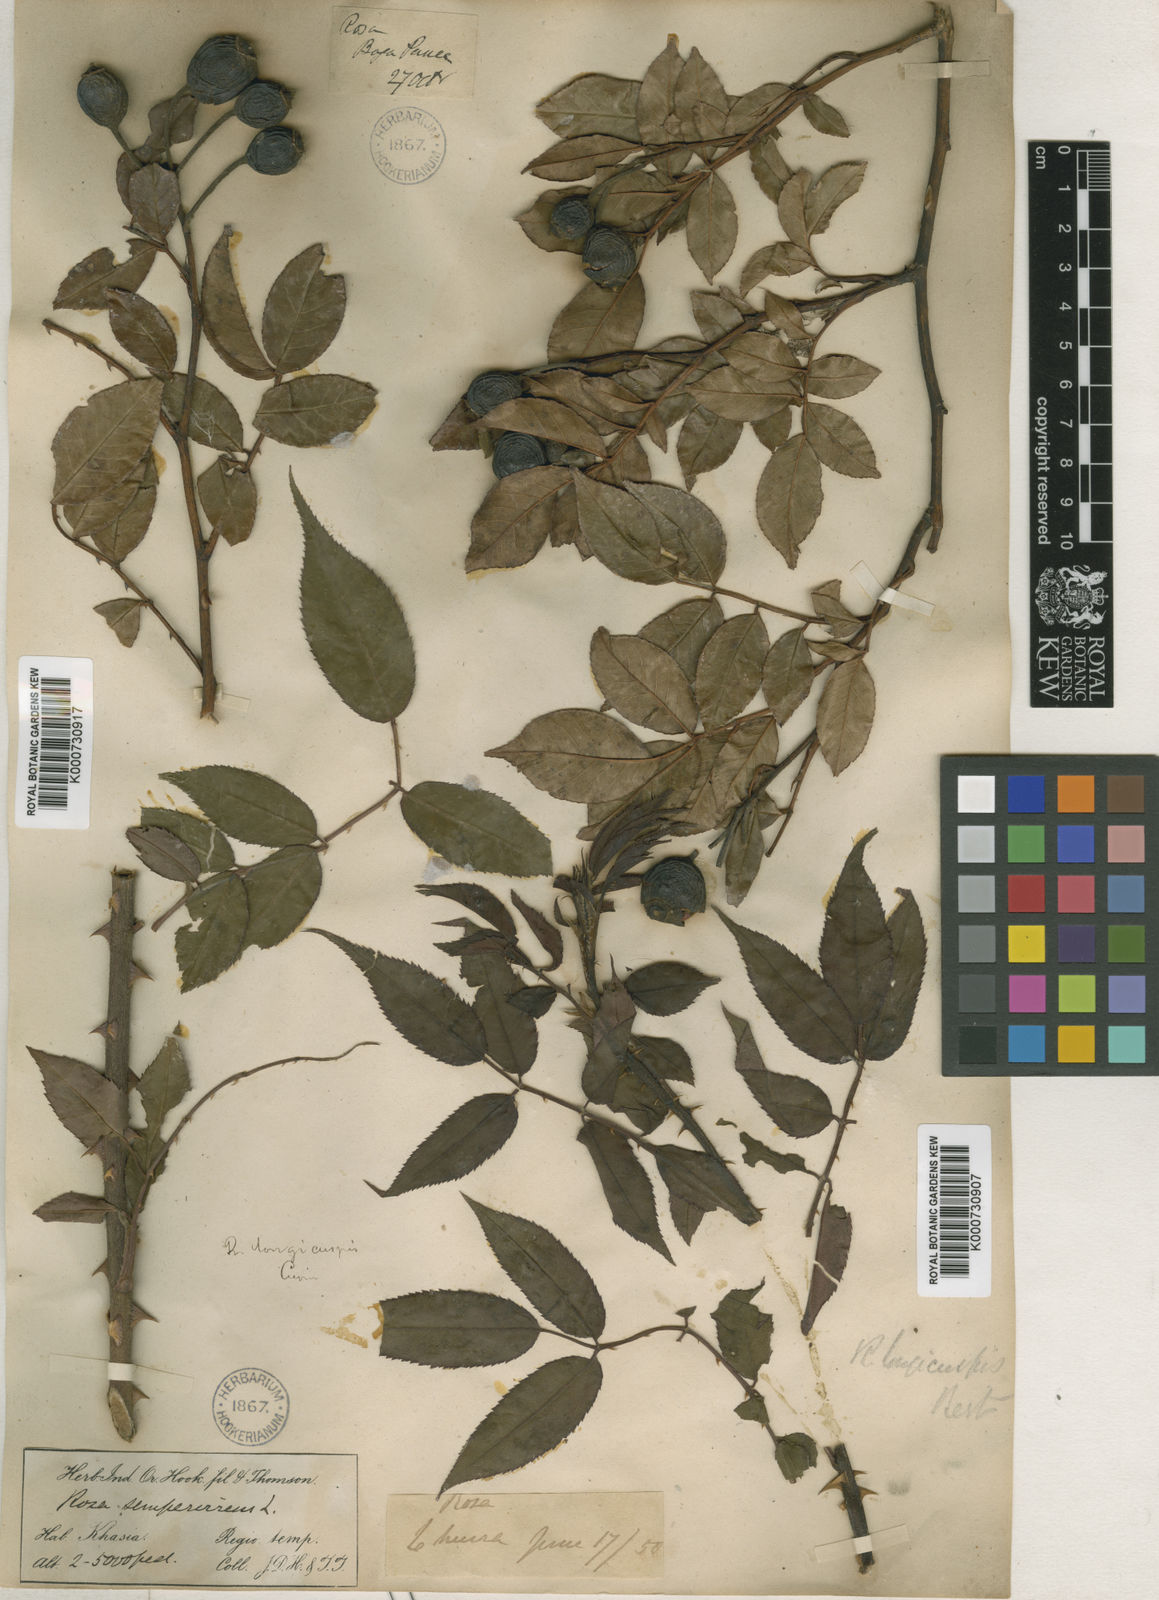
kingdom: Plantae
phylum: Tracheophyta
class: Magnoliopsida
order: Rosales
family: Rosaceae
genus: Rosa
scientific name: Rosa longicuspis
